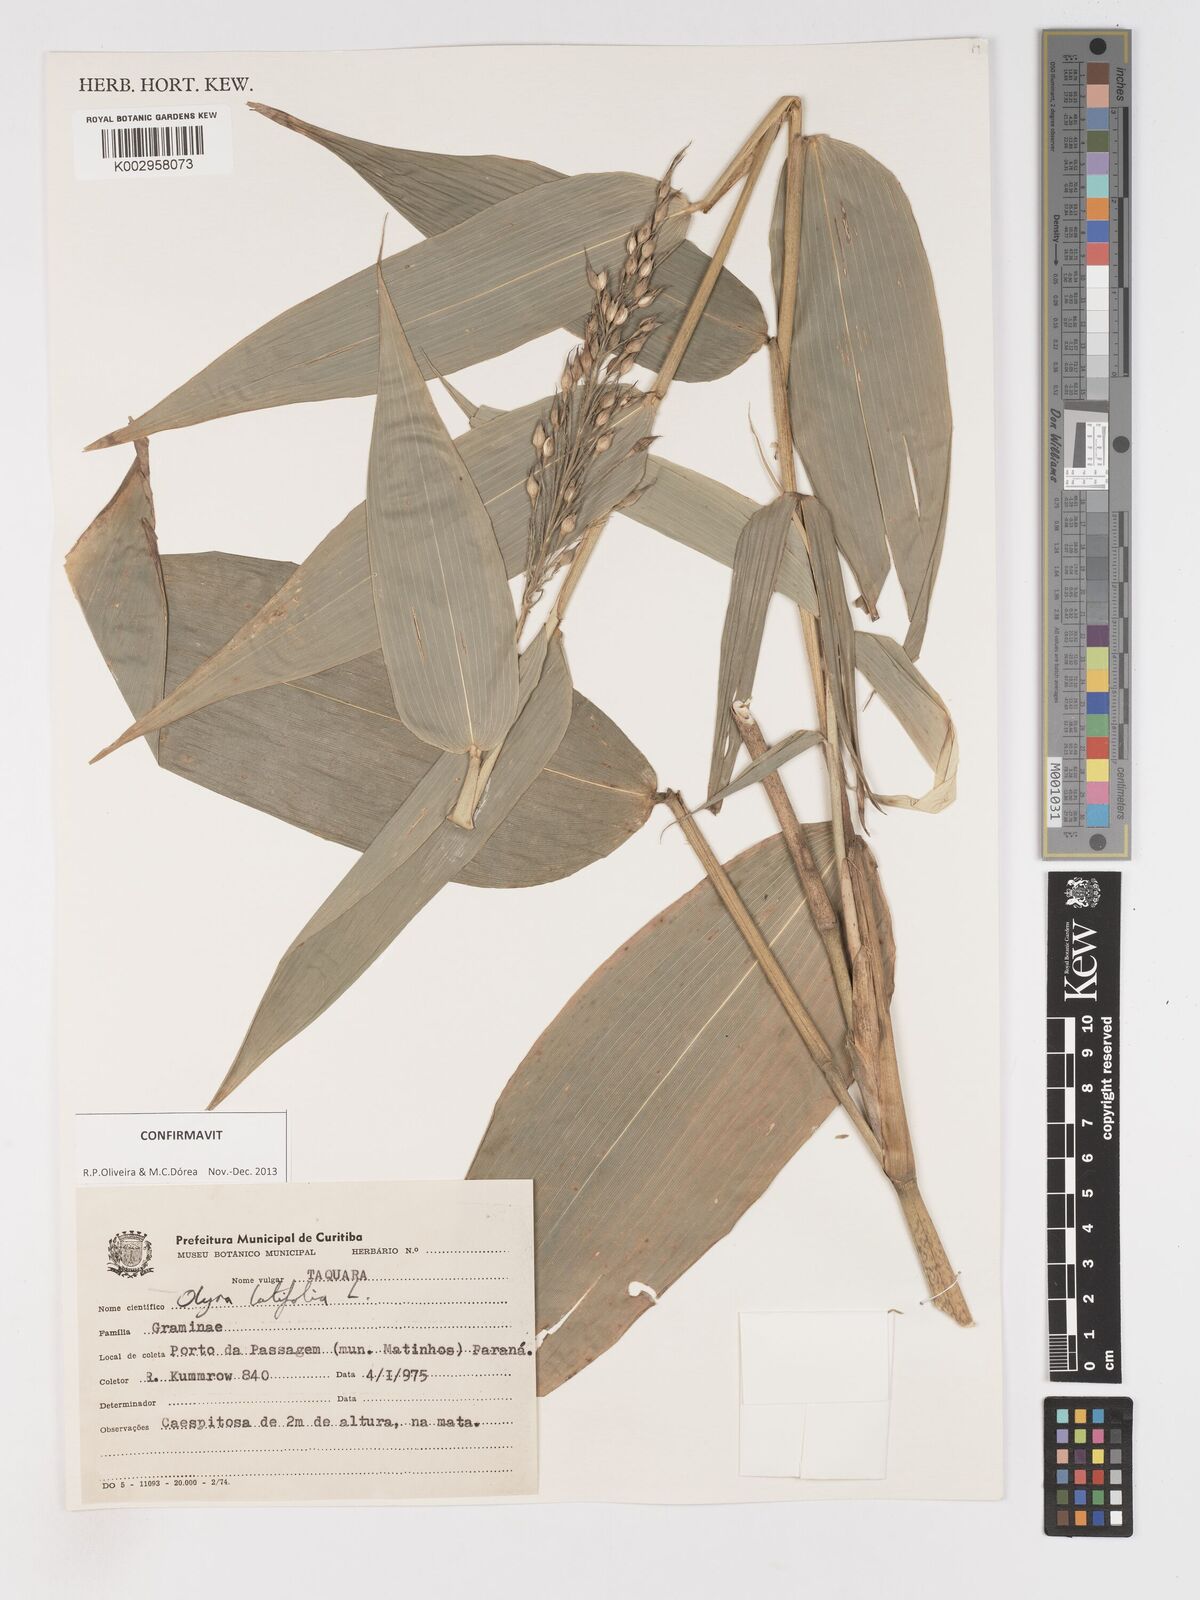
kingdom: Plantae
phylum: Tracheophyta
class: Liliopsida
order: Poales
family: Poaceae
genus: Olyra
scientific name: Olyra latifolia
